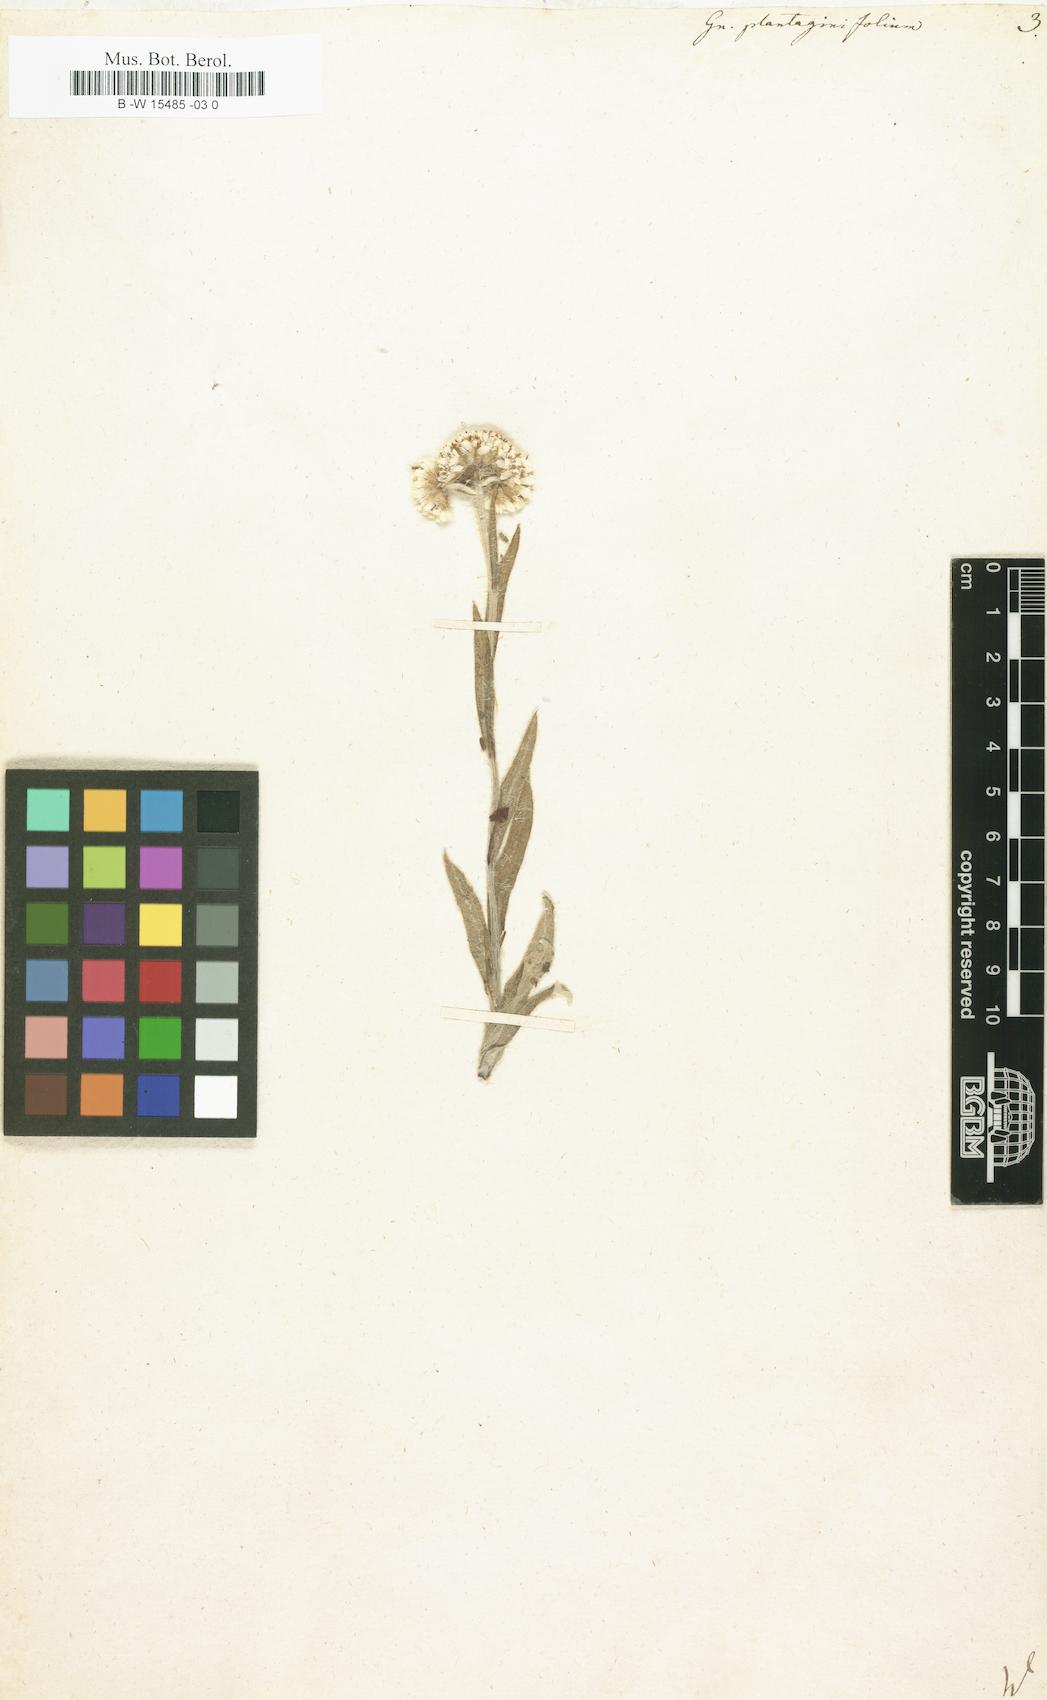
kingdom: Plantae
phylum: Tracheophyta
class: Magnoliopsida
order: Asterales
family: Asteraceae
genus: Antennaria
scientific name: Antennaria plantaginifolia
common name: Plantain-leaved pussytoes
